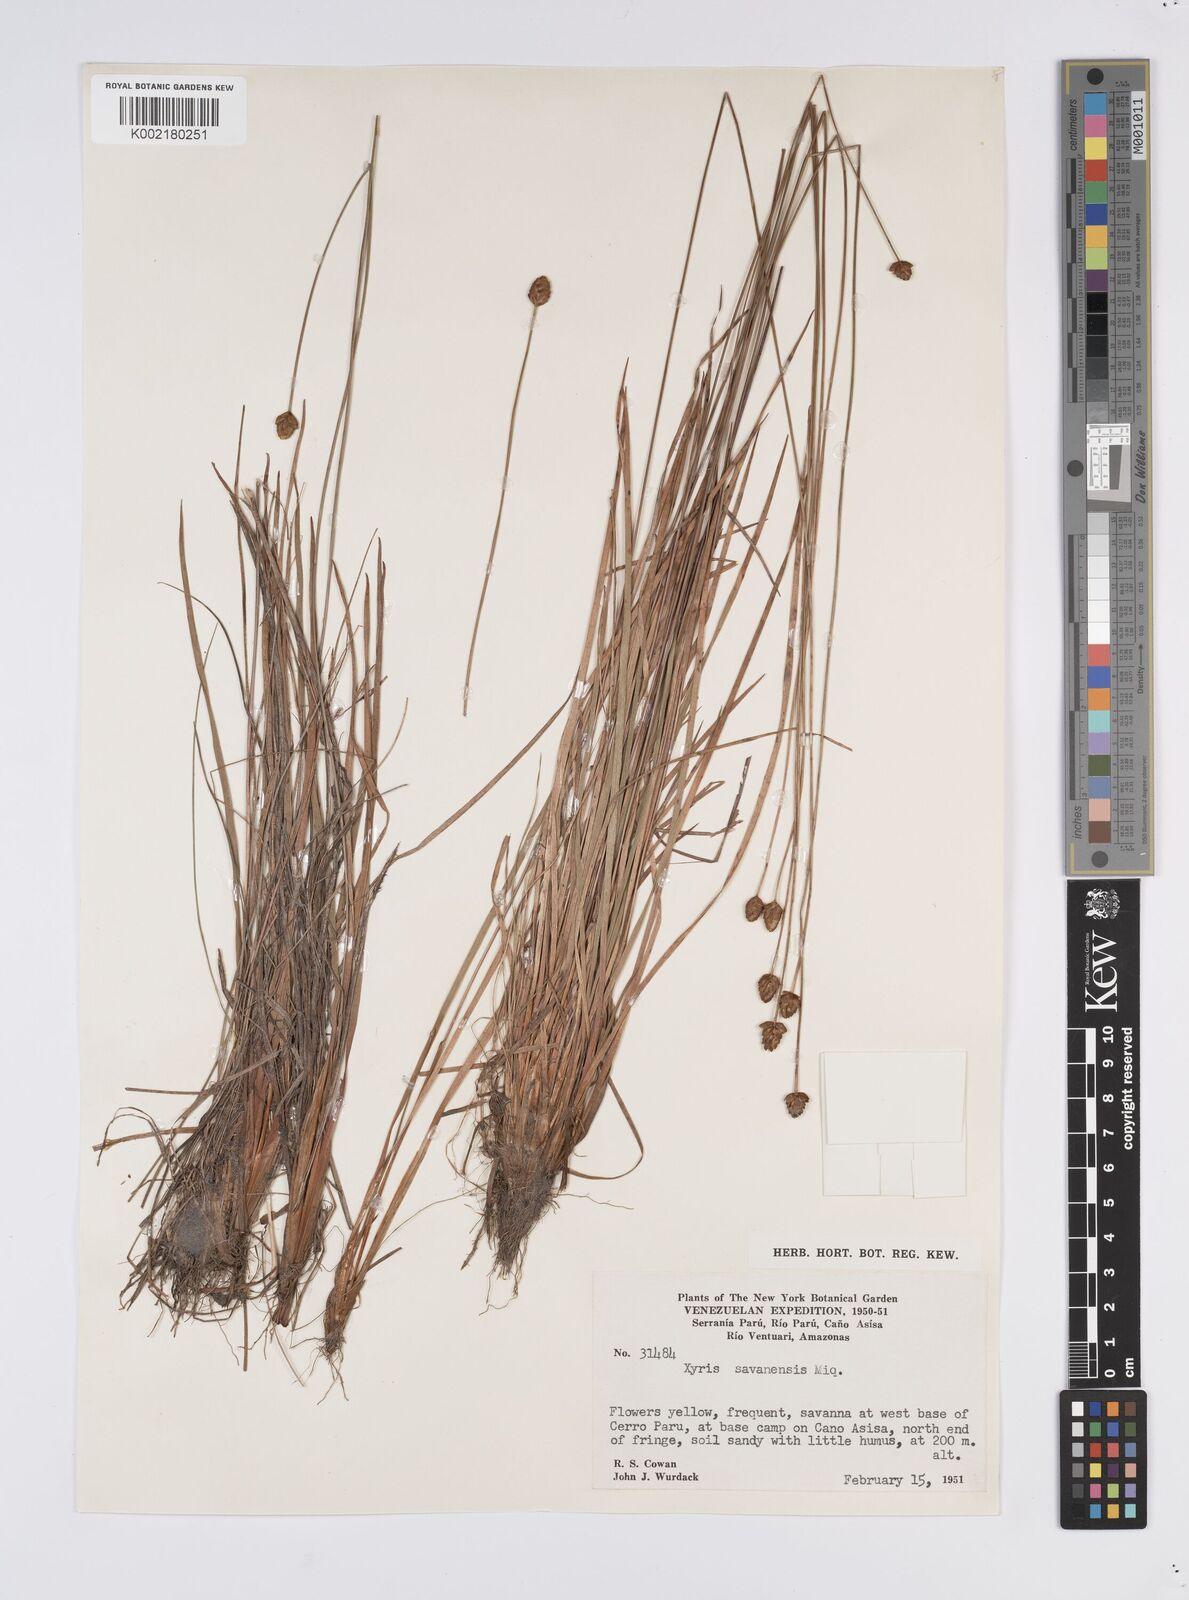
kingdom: Plantae
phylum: Tracheophyta
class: Liliopsida
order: Poales
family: Xyridaceae
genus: Xyris
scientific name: Xyris savanensis
